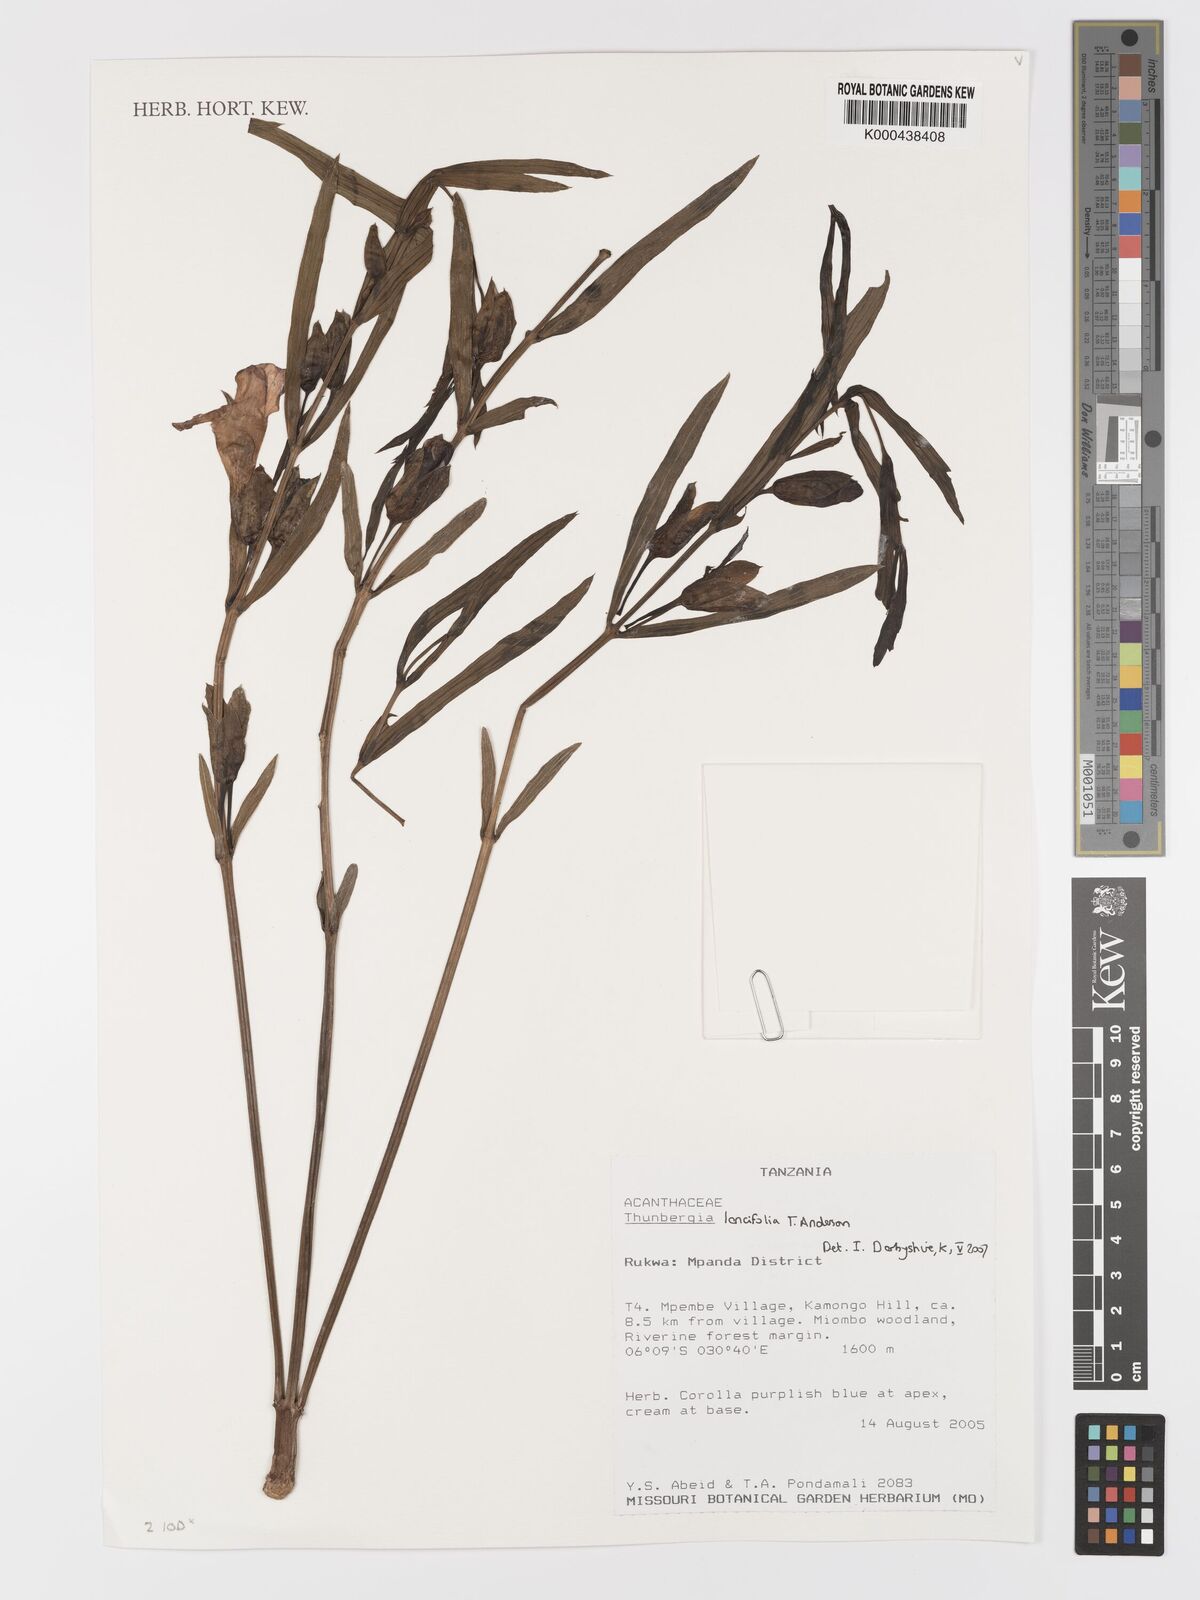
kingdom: Plantae
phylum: Tracheophyta
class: Magnoliopsida
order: Lamiales
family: Acanthaceae
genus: Thunbergia
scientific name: Thunbergia lancifolia
